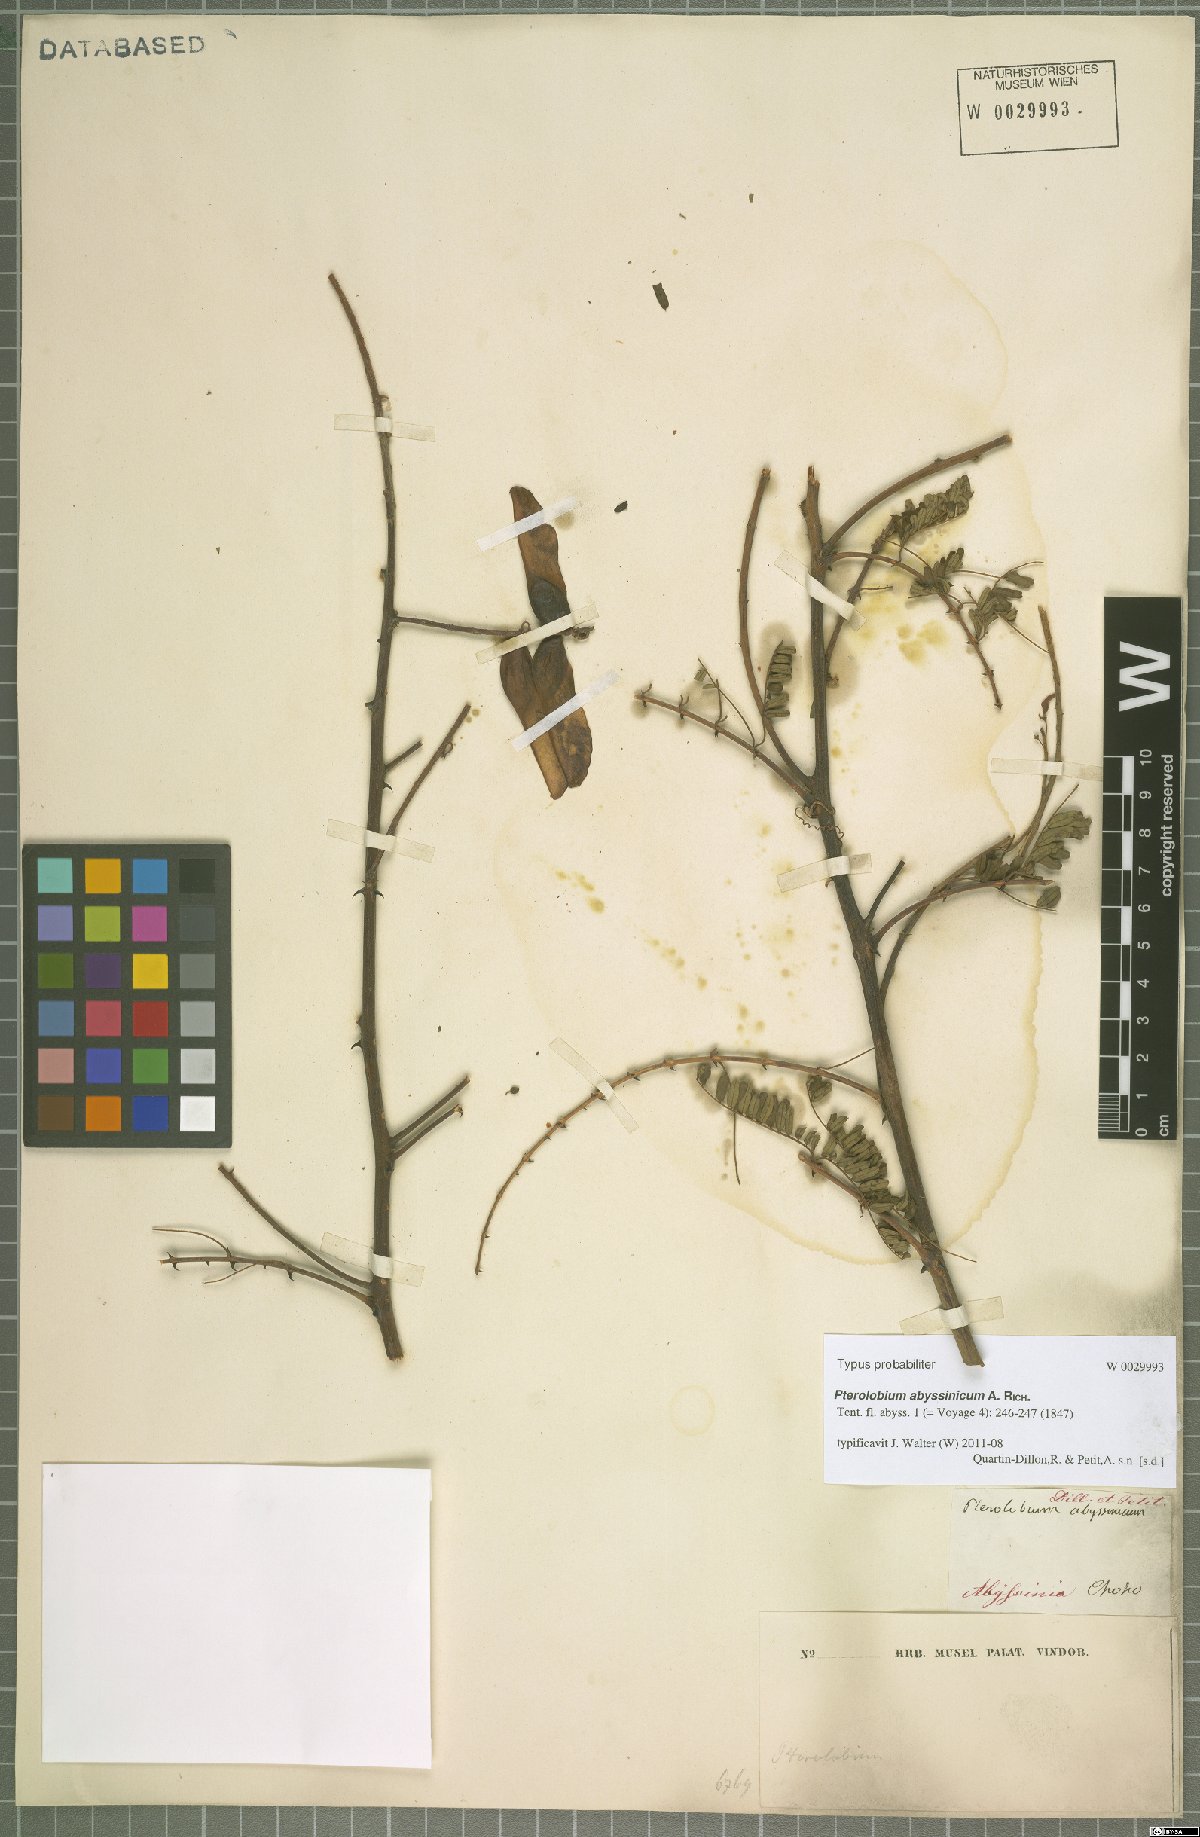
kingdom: Plantae
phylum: Tracheophyta
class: Magnoliopsida
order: Fabales
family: Fabaceae
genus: Pterolobium
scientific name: Pterolobium stellatum
